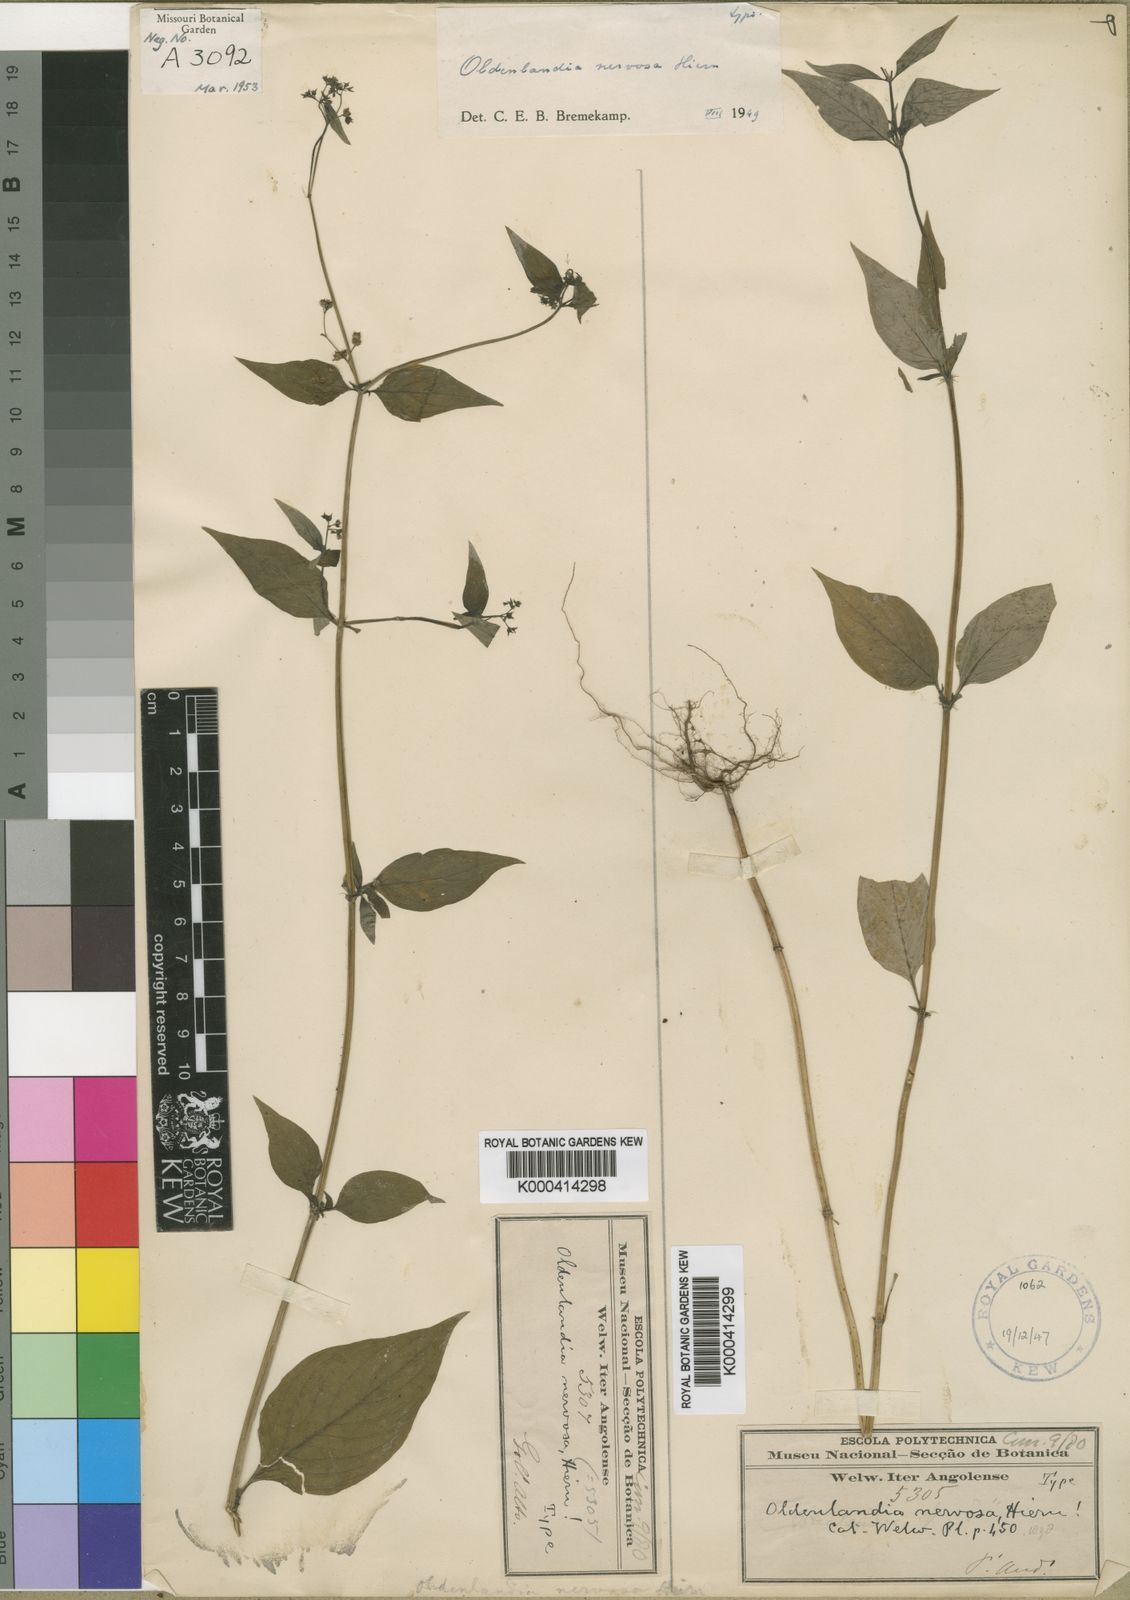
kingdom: Plantae
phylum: Tracheophyta
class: Magnoliopsida
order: Gentianales
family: Rubiaceae
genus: Oldenlandia
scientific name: Oldenlandia nervosa
